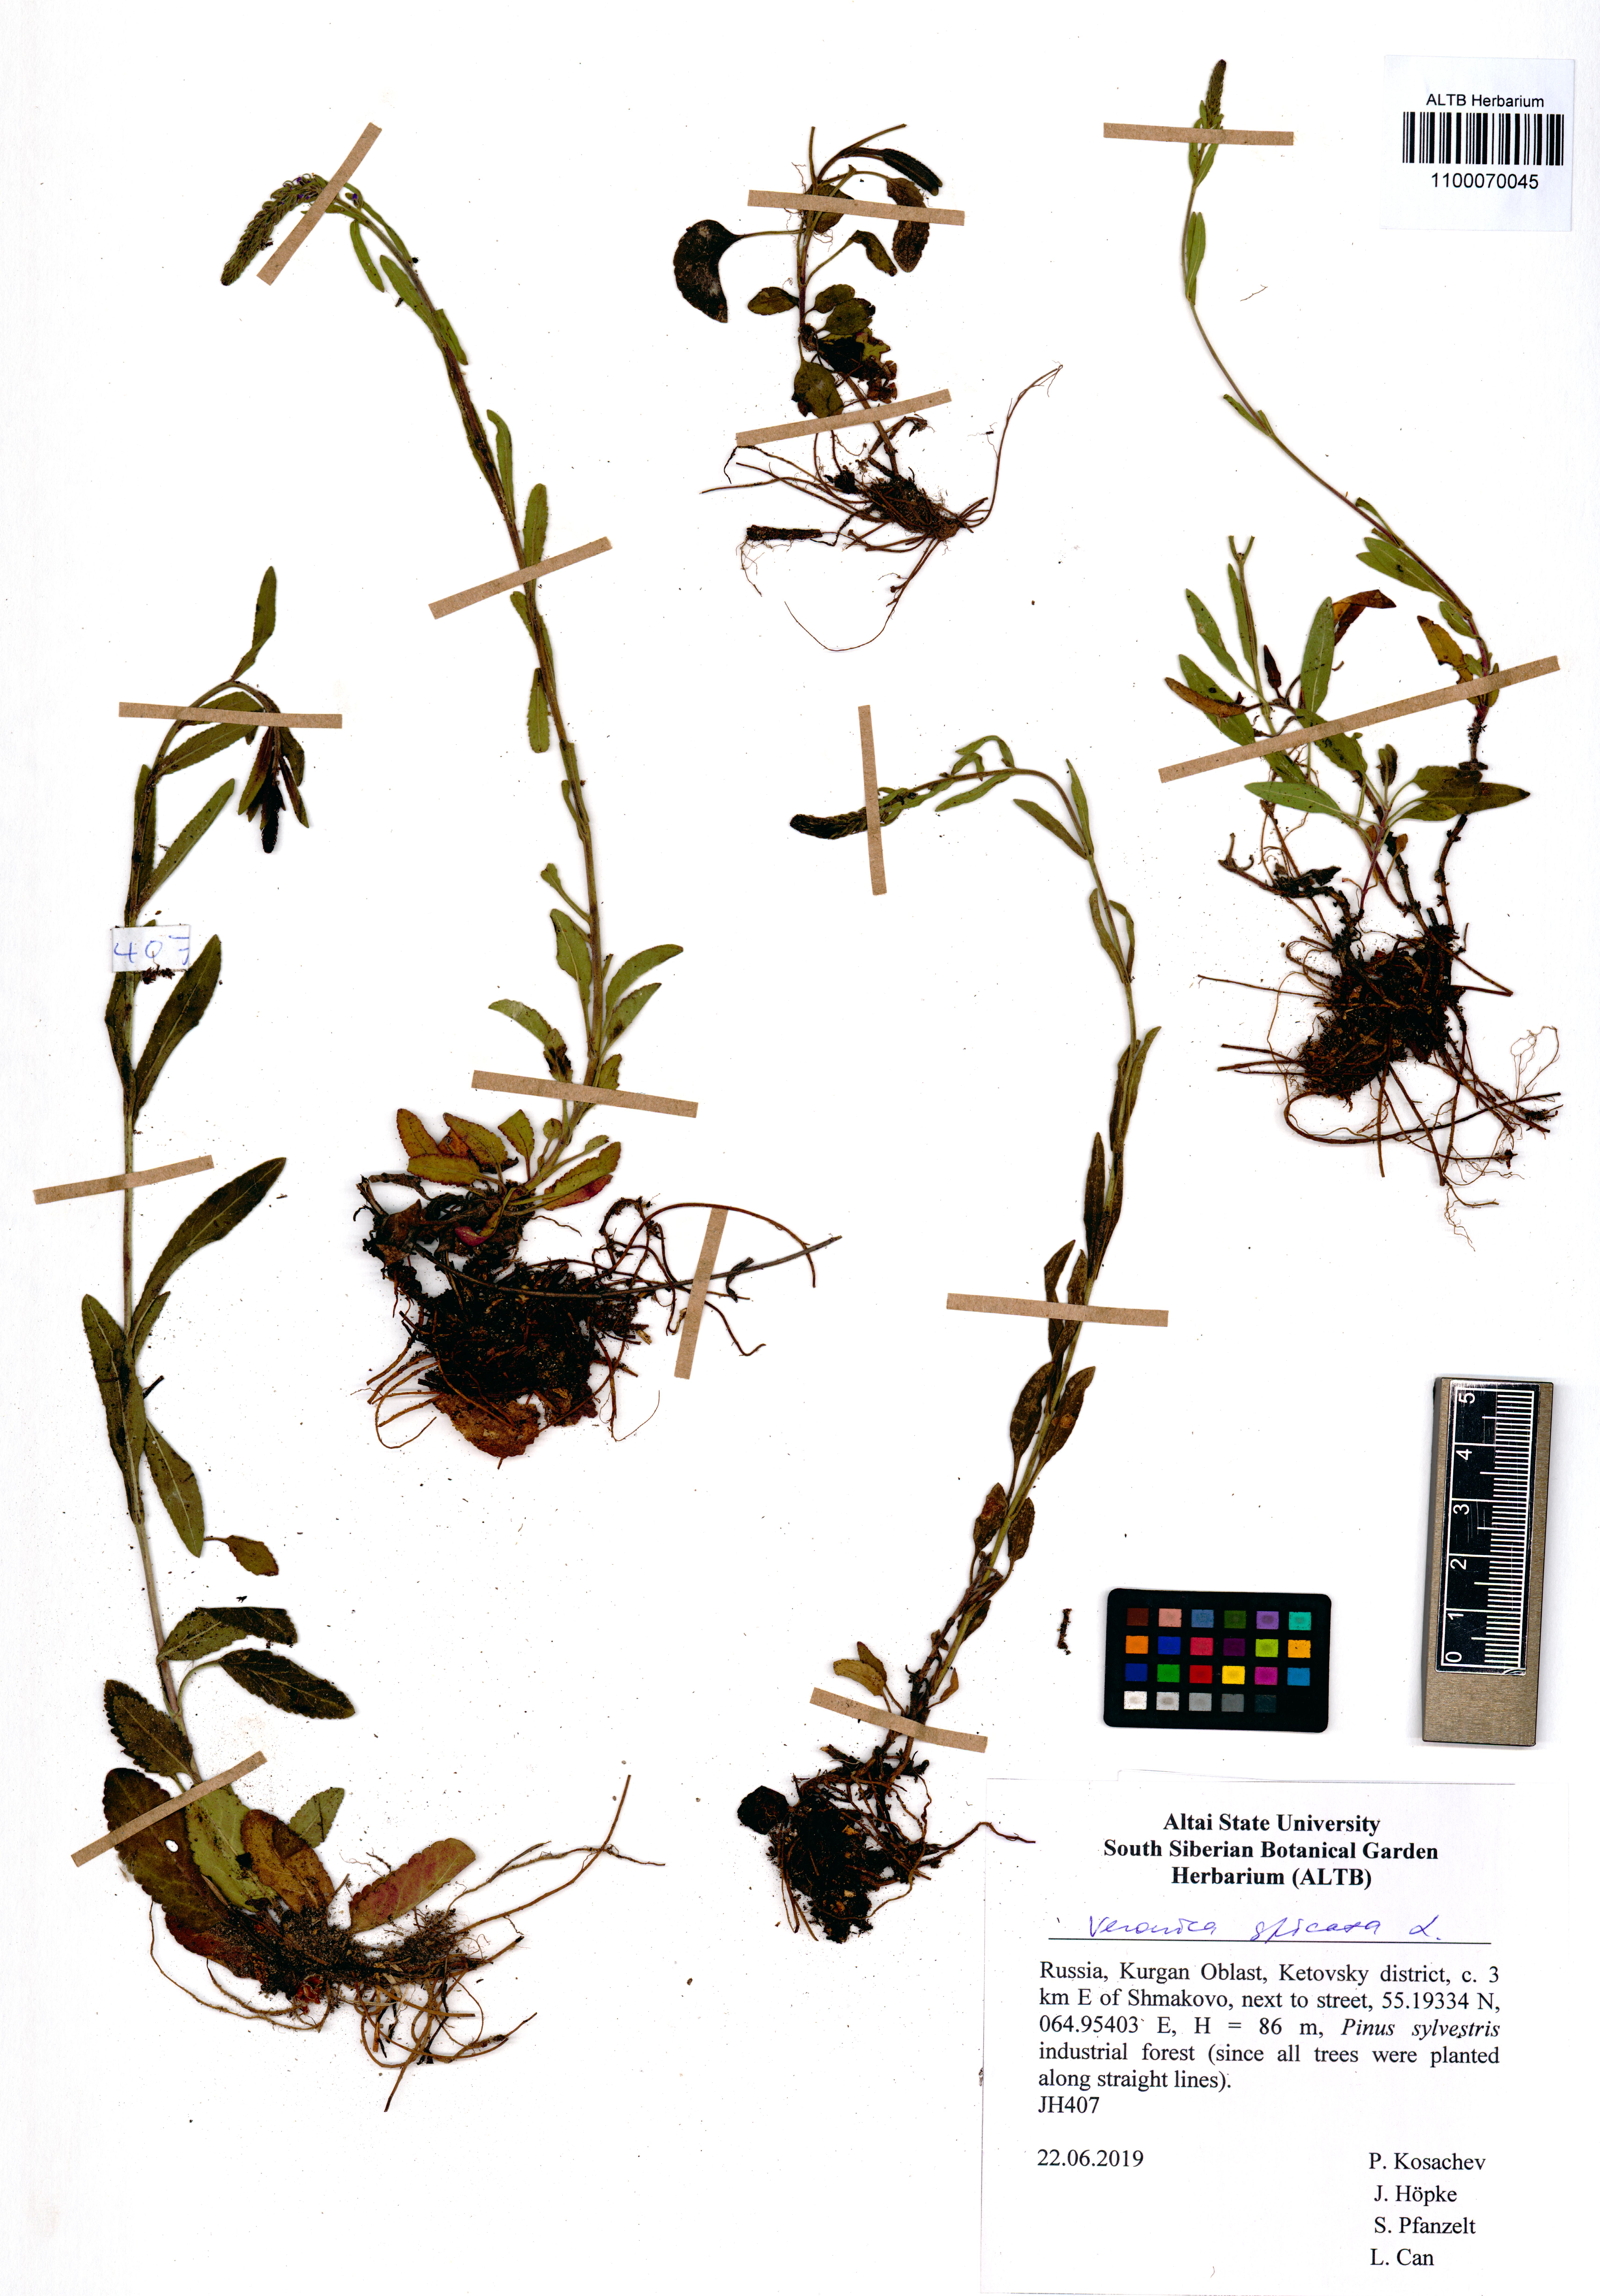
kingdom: Plantae
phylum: Tracheophyta
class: Magnoliopsida
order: Lamiales
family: Plantaginaceae
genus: Veronica
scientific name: Veronica spicata
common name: Spiked speedwell
